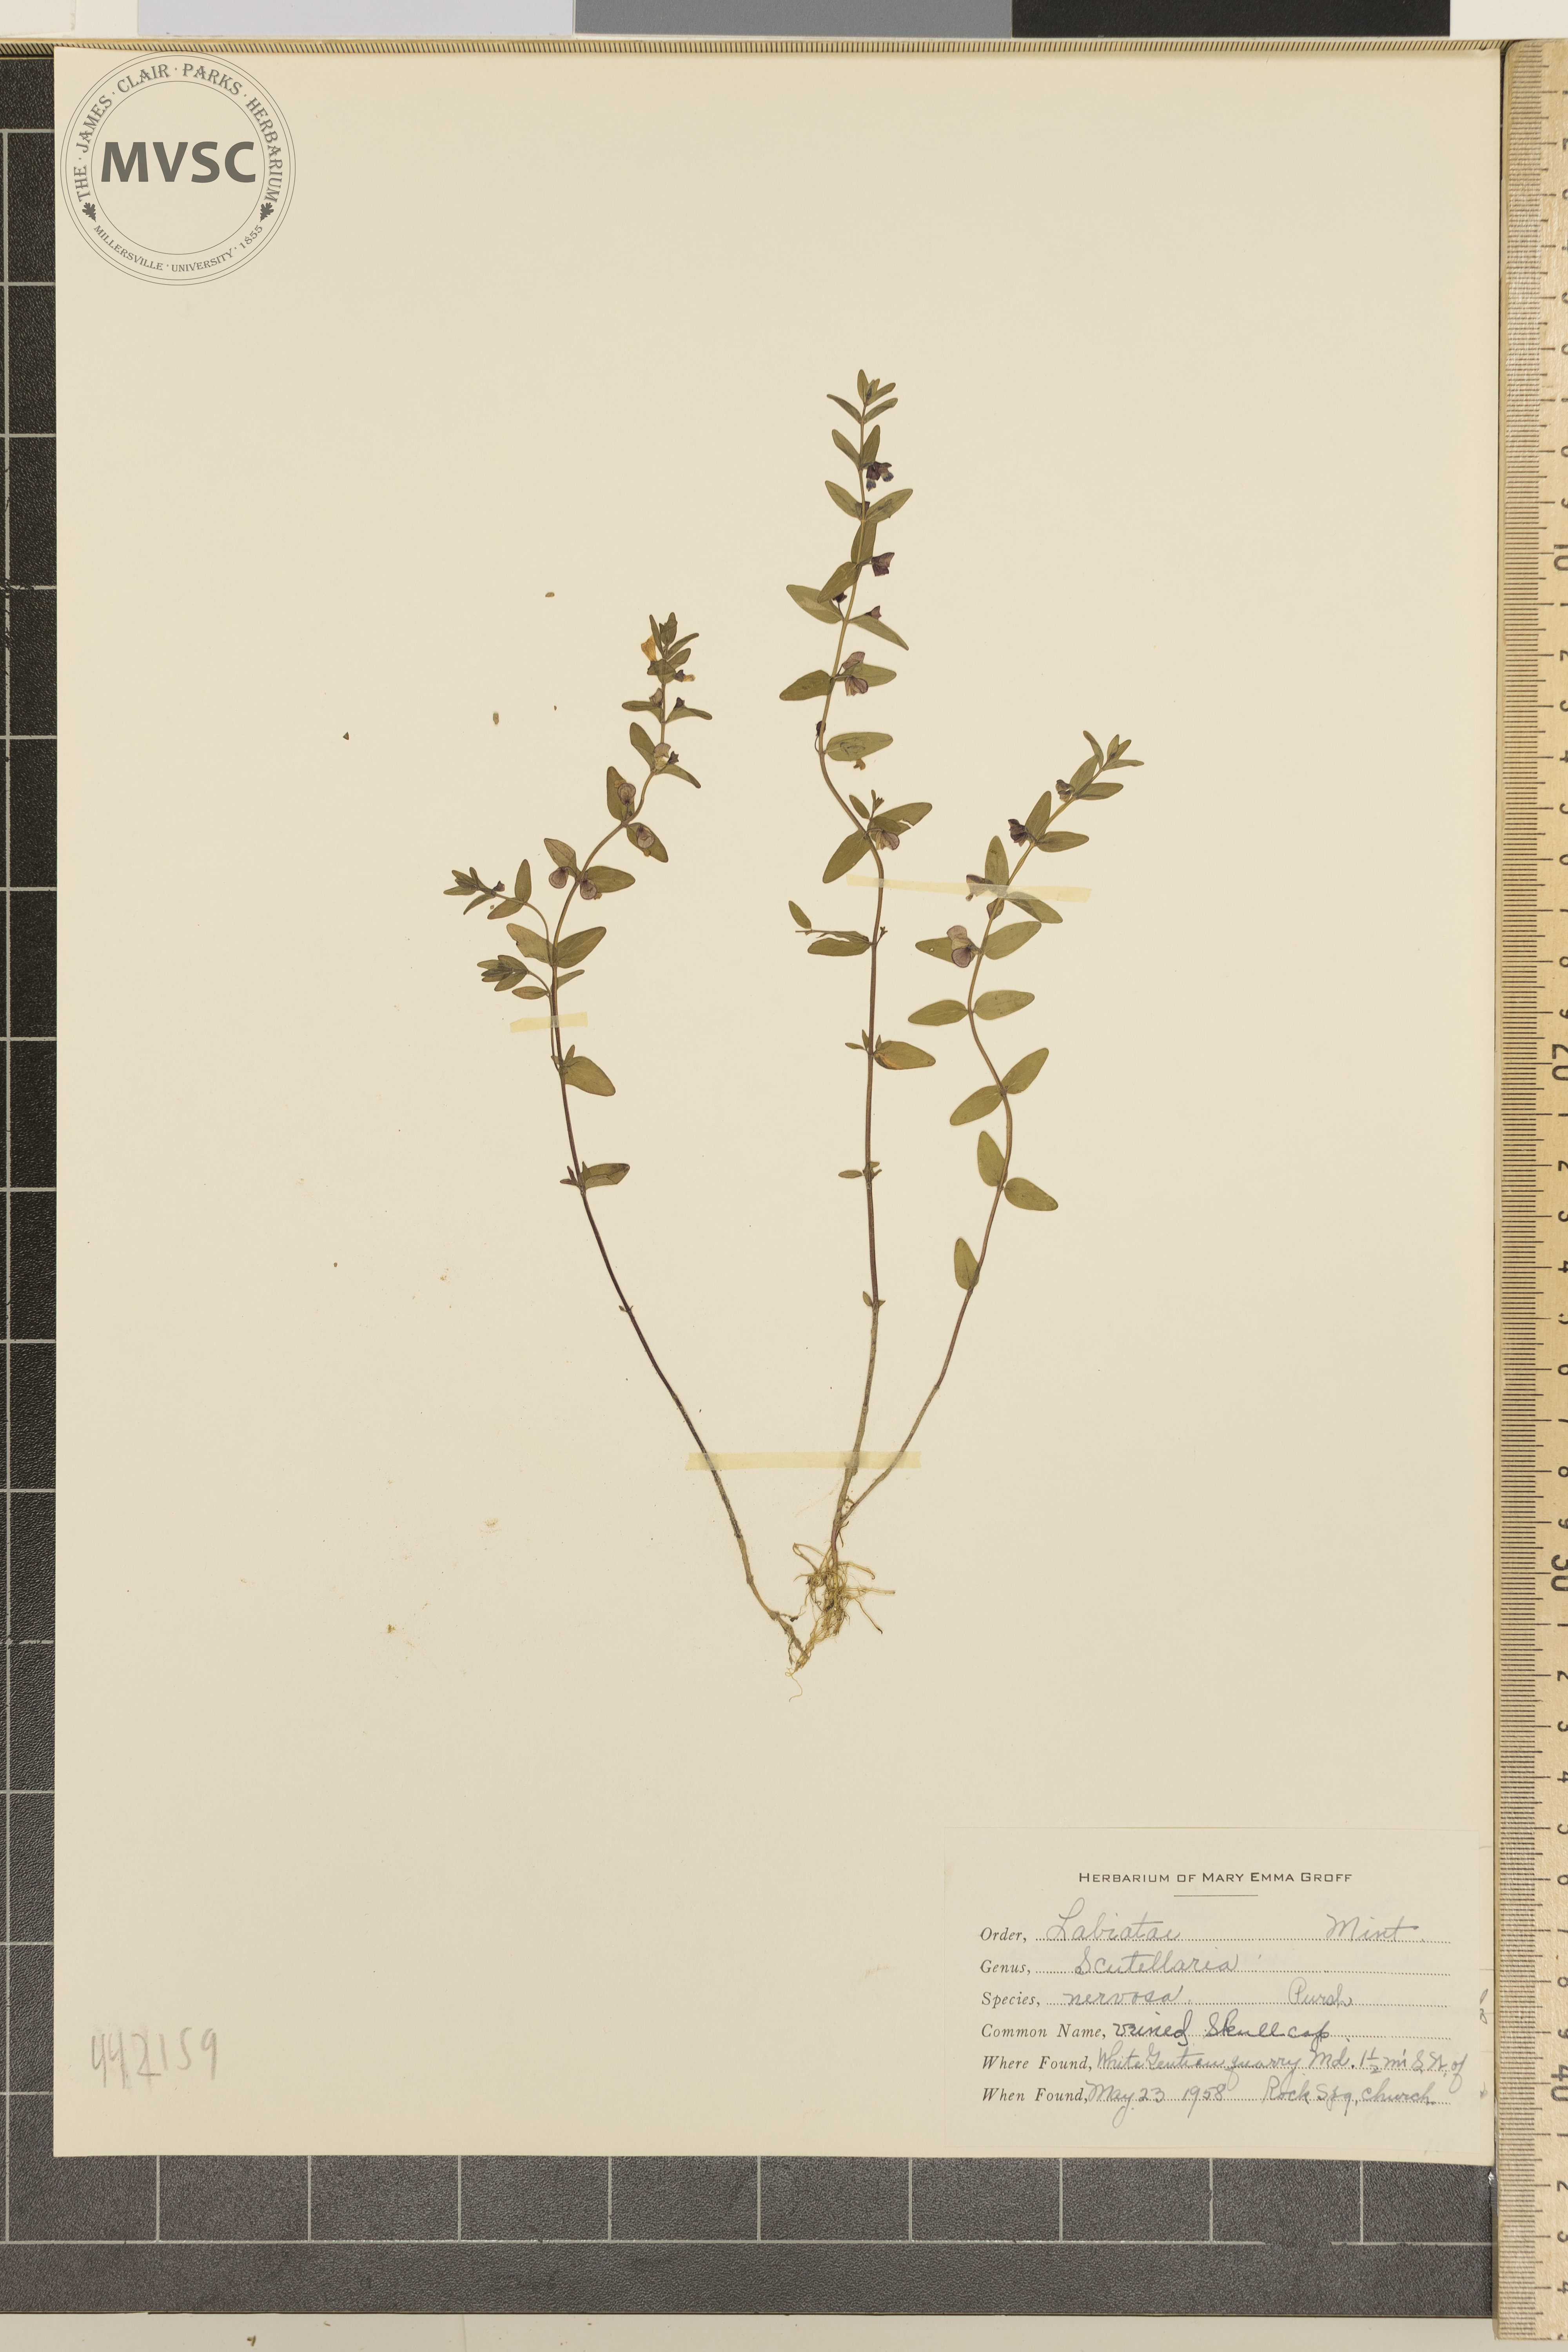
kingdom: Plantae
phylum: Tracheophyta
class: Magnoliopsida
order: Lamiales
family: Lamiaceae
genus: Scutellaria
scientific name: Scutellaria nervosa
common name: Veined skullcap
